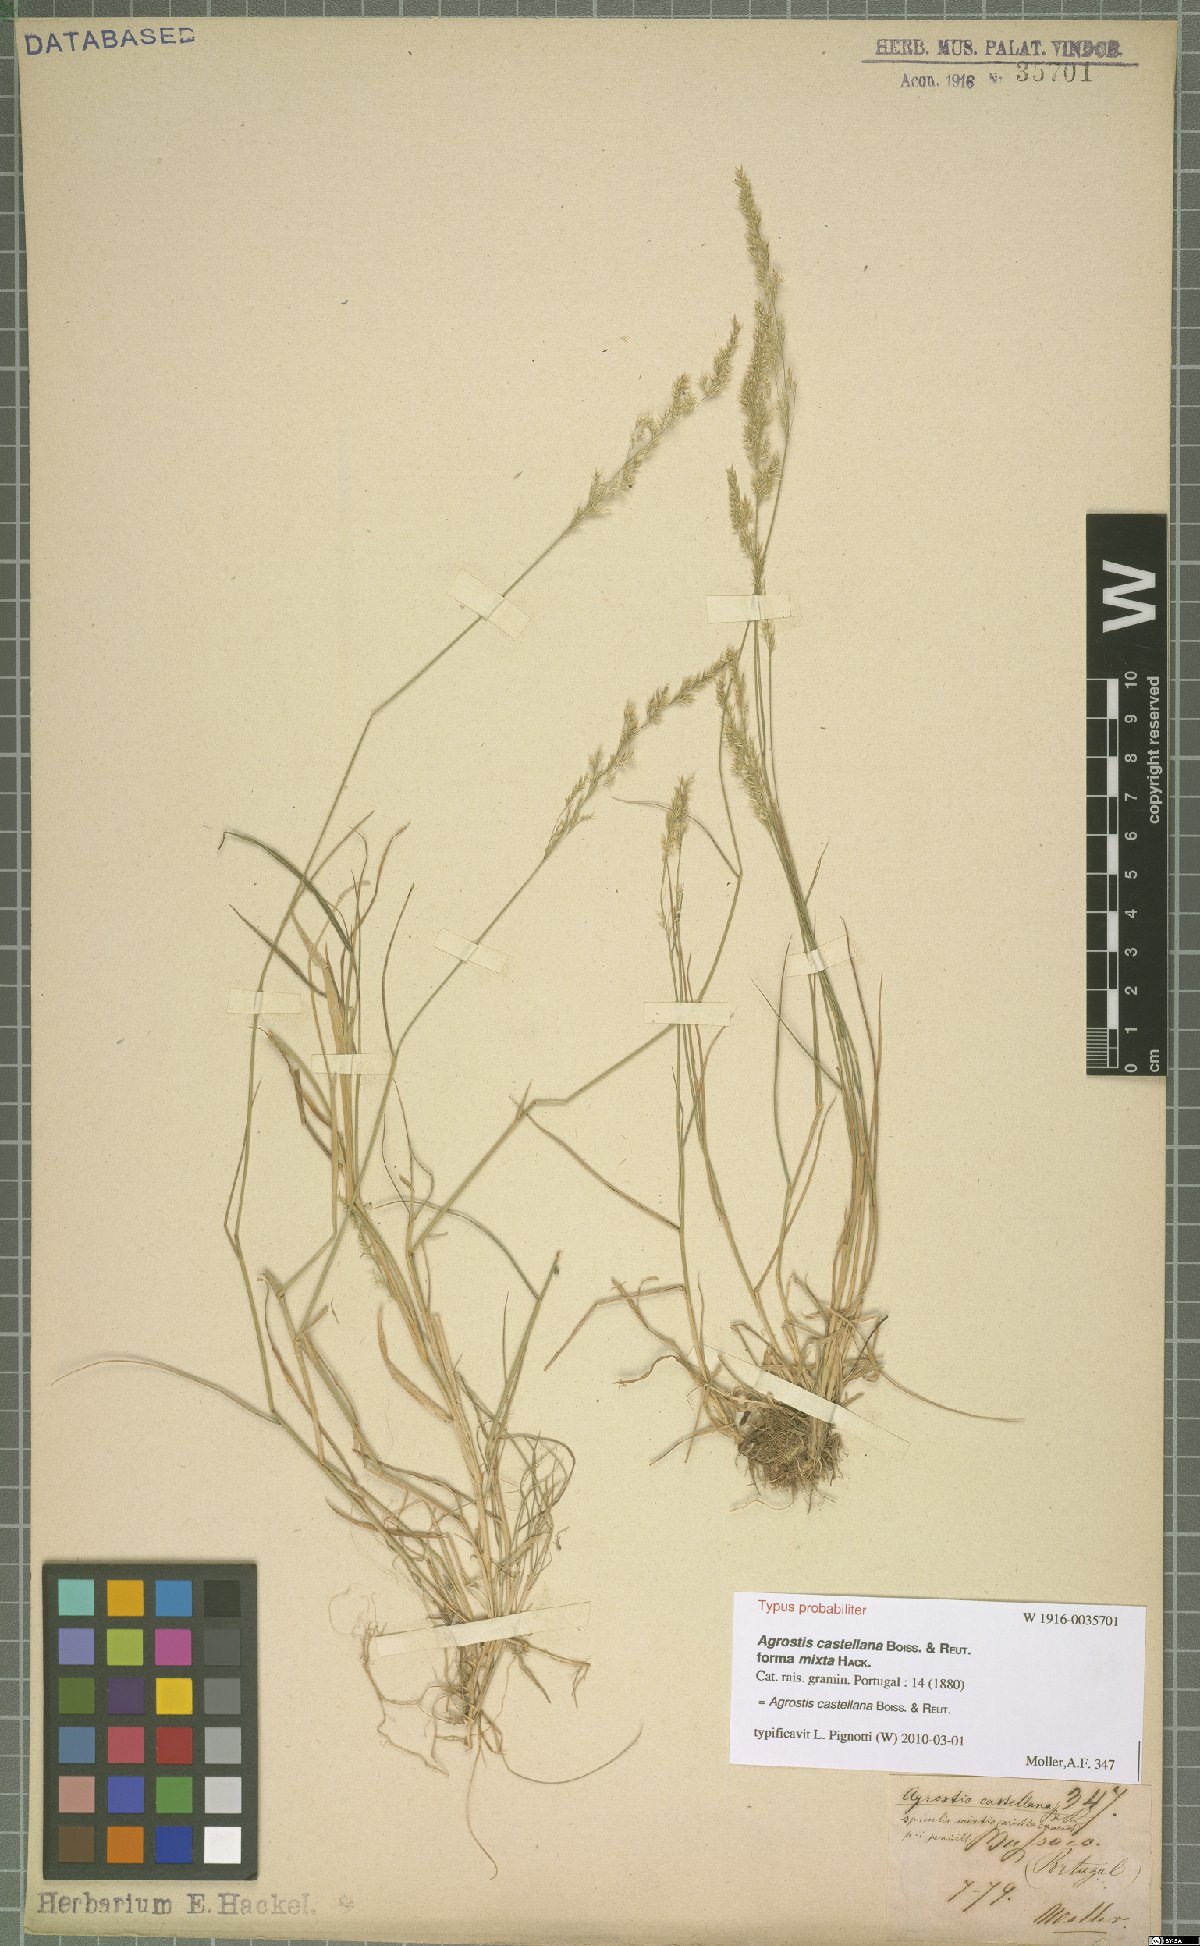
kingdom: Plantae
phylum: Tracheophyta
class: Liliopsida
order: Poales
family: Poaceae
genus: Agrostis
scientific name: Agrostis castellana
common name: Highland bent
